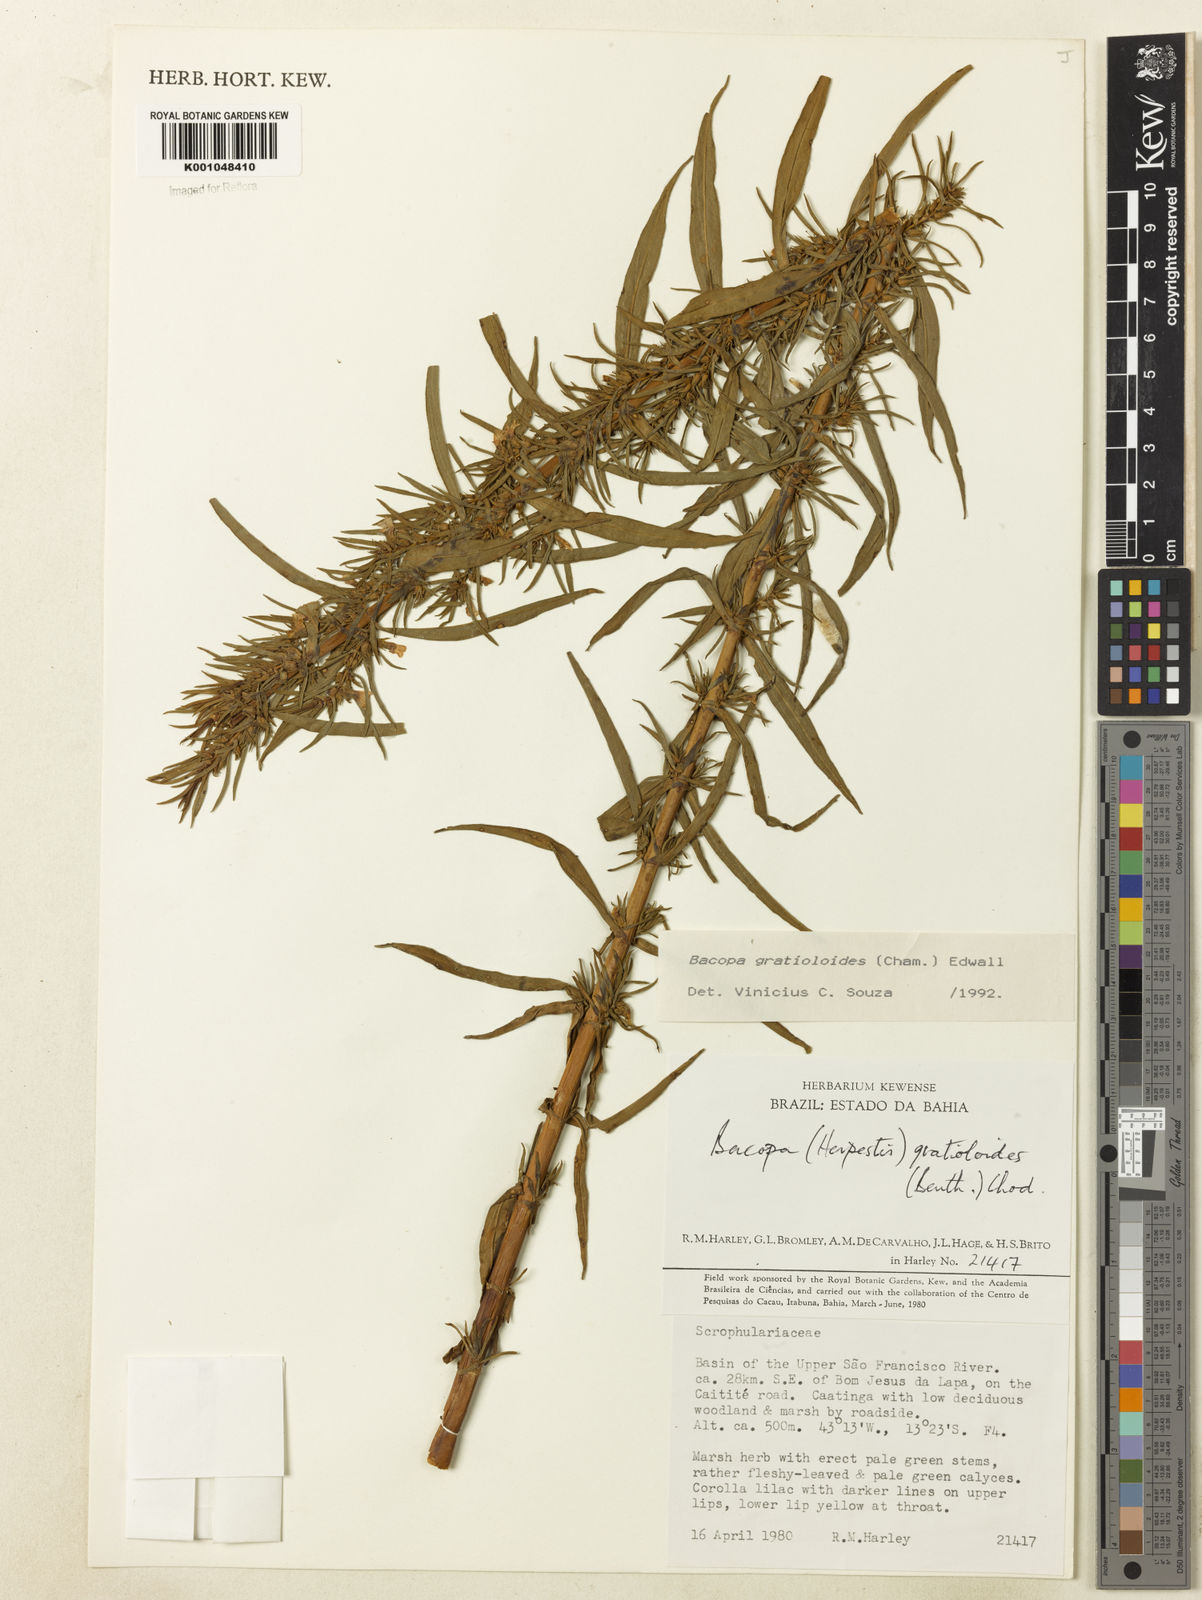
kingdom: Plantae
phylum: Tracheophyta
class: Magnoliopsida
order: Lamiales
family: Plantaginaceae
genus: Bacopa
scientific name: Bacopa
